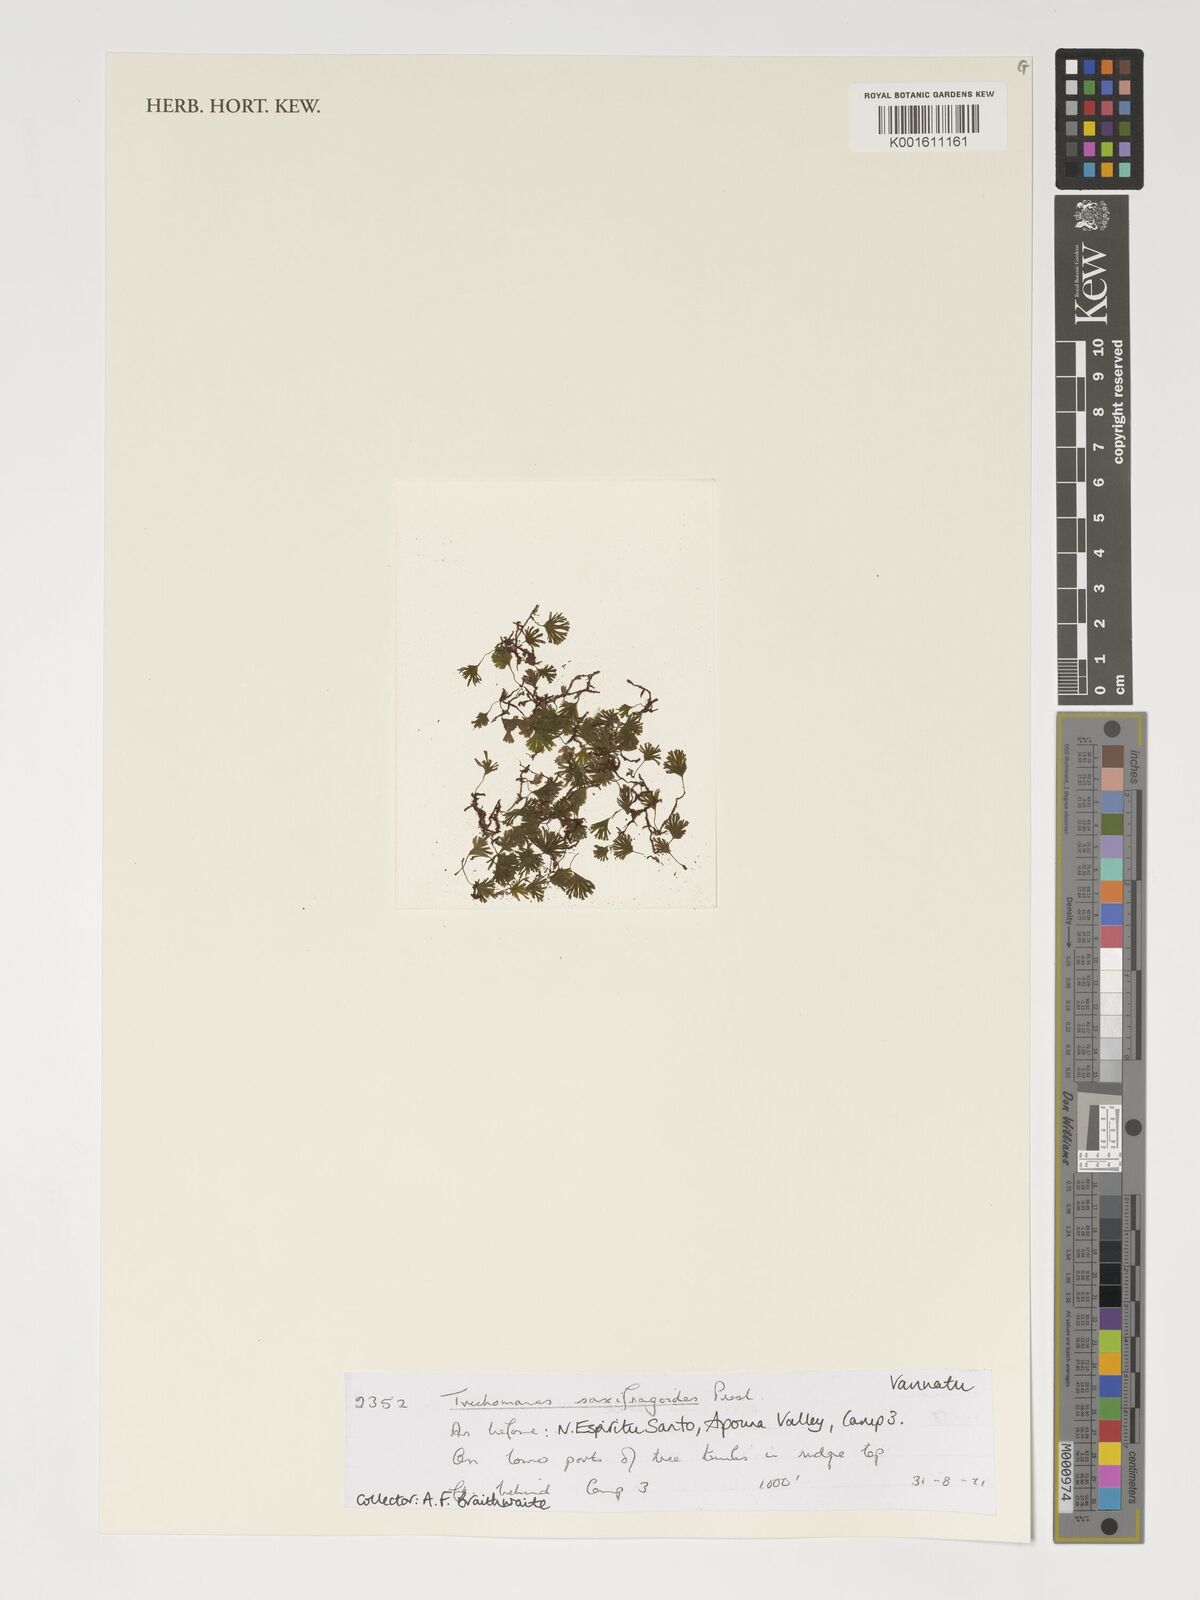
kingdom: Plantae
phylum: Tracheophyta
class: Polypodiopsida
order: Hymenophyllales
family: Hymenophyllaceae
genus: Crepidomanes
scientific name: Crepidomanes saxifragoides
